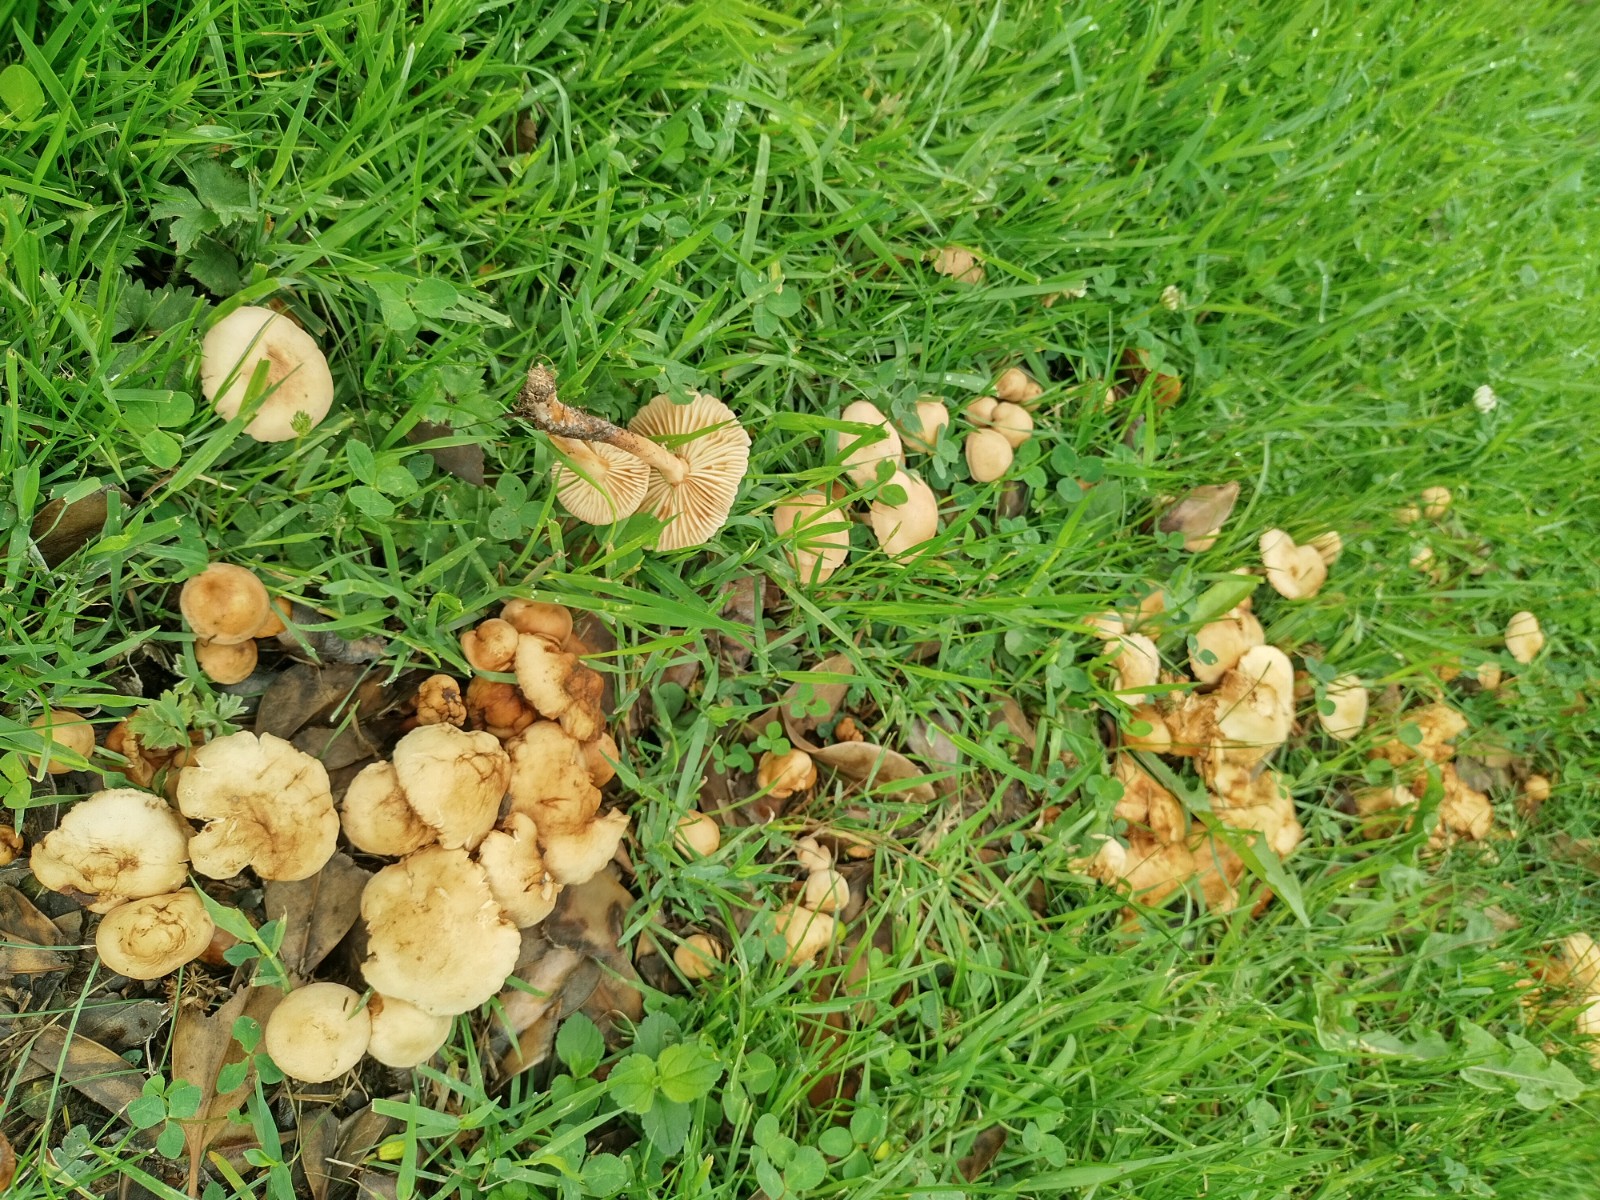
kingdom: Fungi
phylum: Basidiomycota
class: Agaricomycetes
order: Agaricales
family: Marasmiaceae
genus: Marasmius
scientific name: Marasmius oreades
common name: elledans-bruskhat
